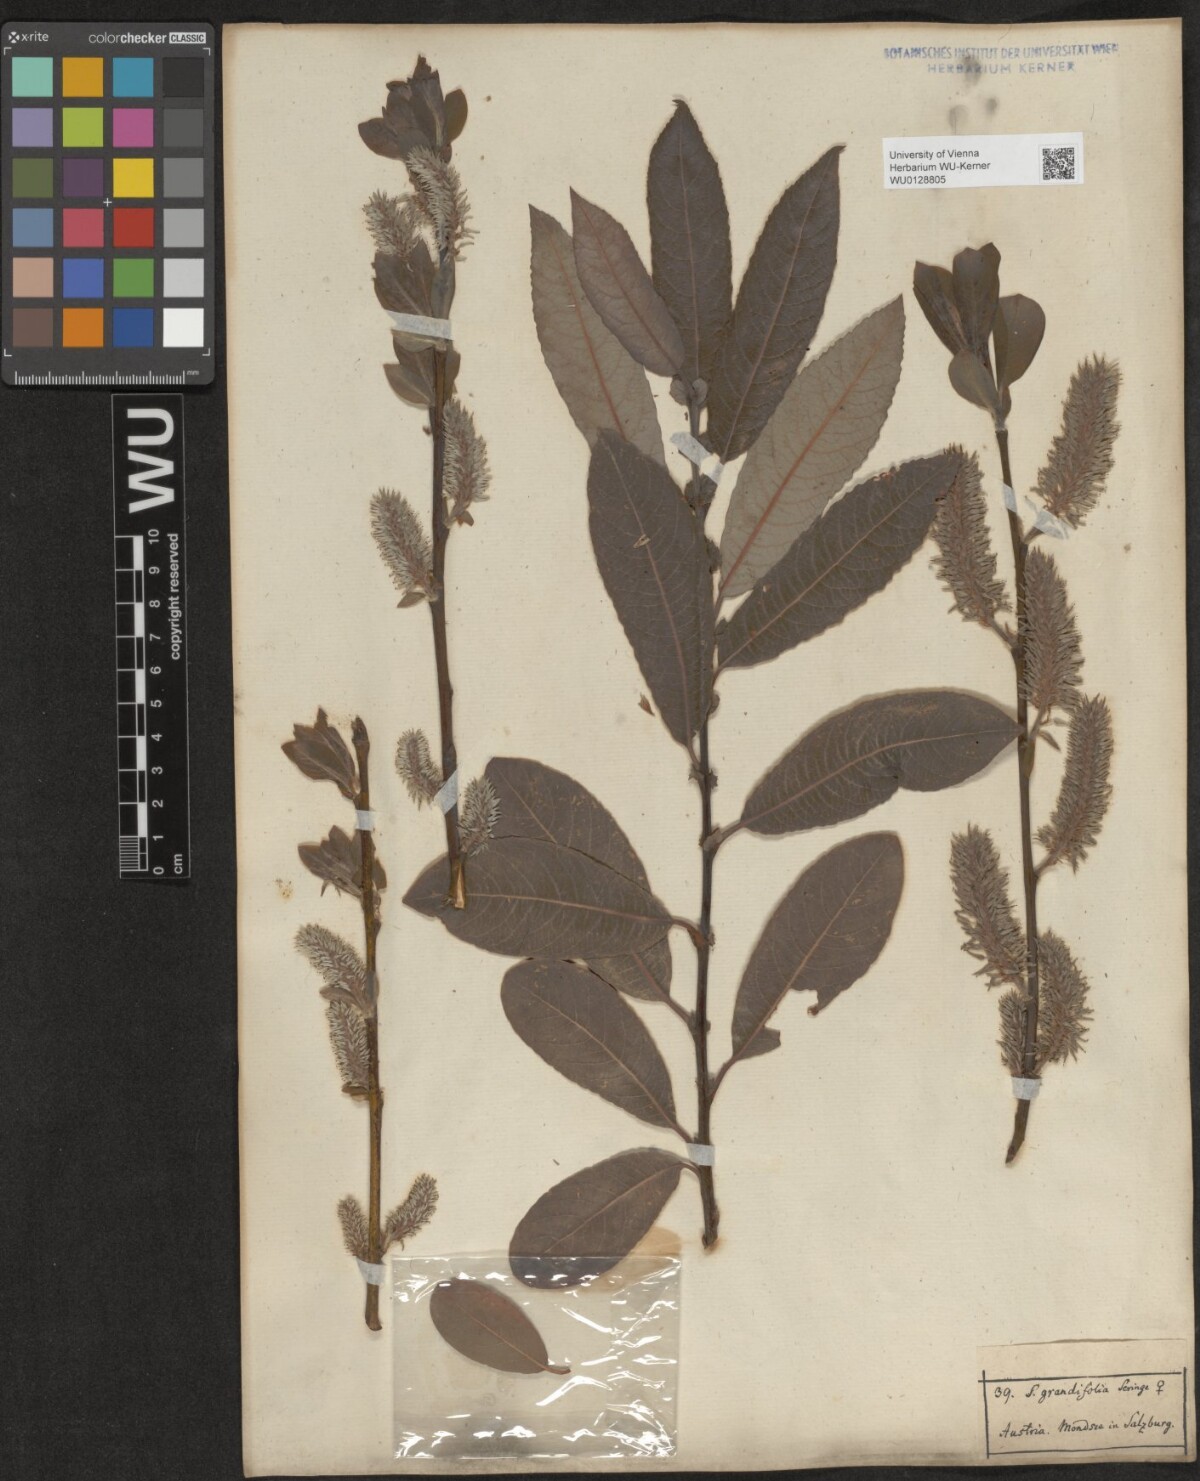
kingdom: Plantae
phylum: Tracheophyta
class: Magnoliopsida
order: Malpighiales
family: Salicaceae
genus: Salix
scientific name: Salix appendiculata
